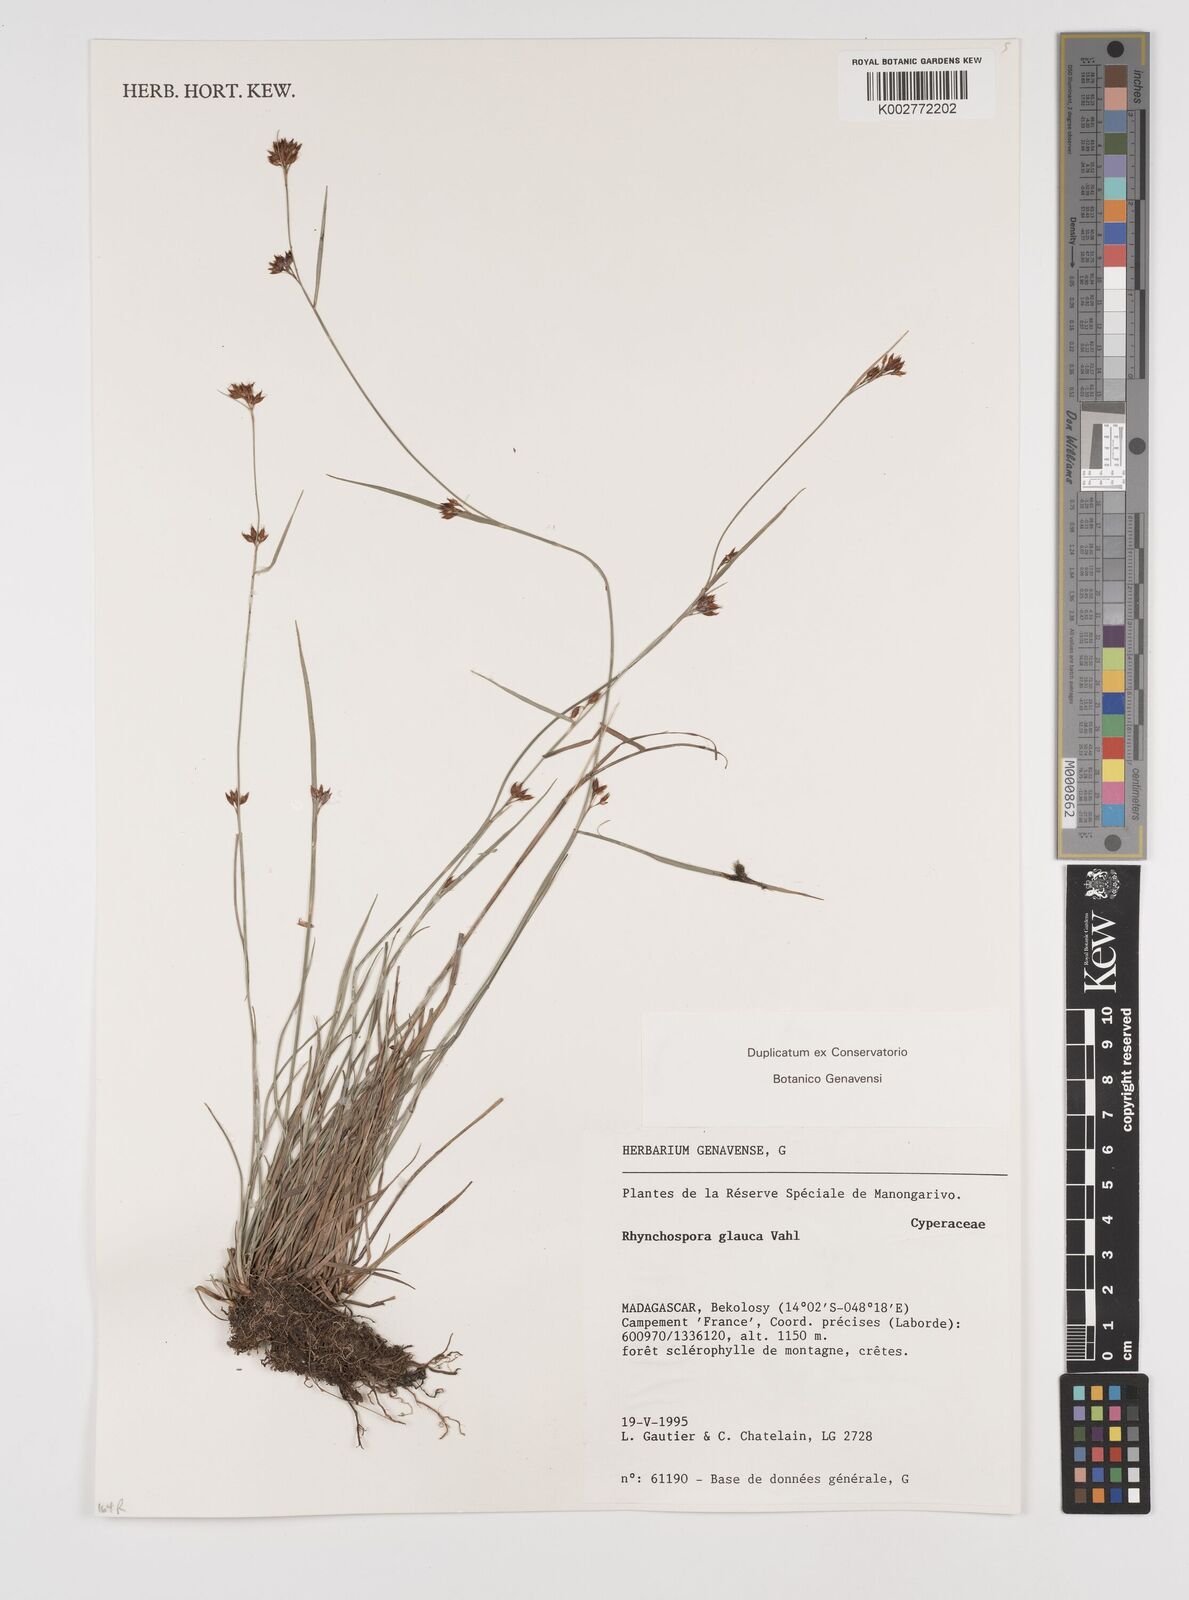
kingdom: Plantae
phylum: Tracheophyta
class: Liliopsida
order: Poales
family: Cyperaceae
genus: Rhynchospora
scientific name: Rhynchospora rugosa
